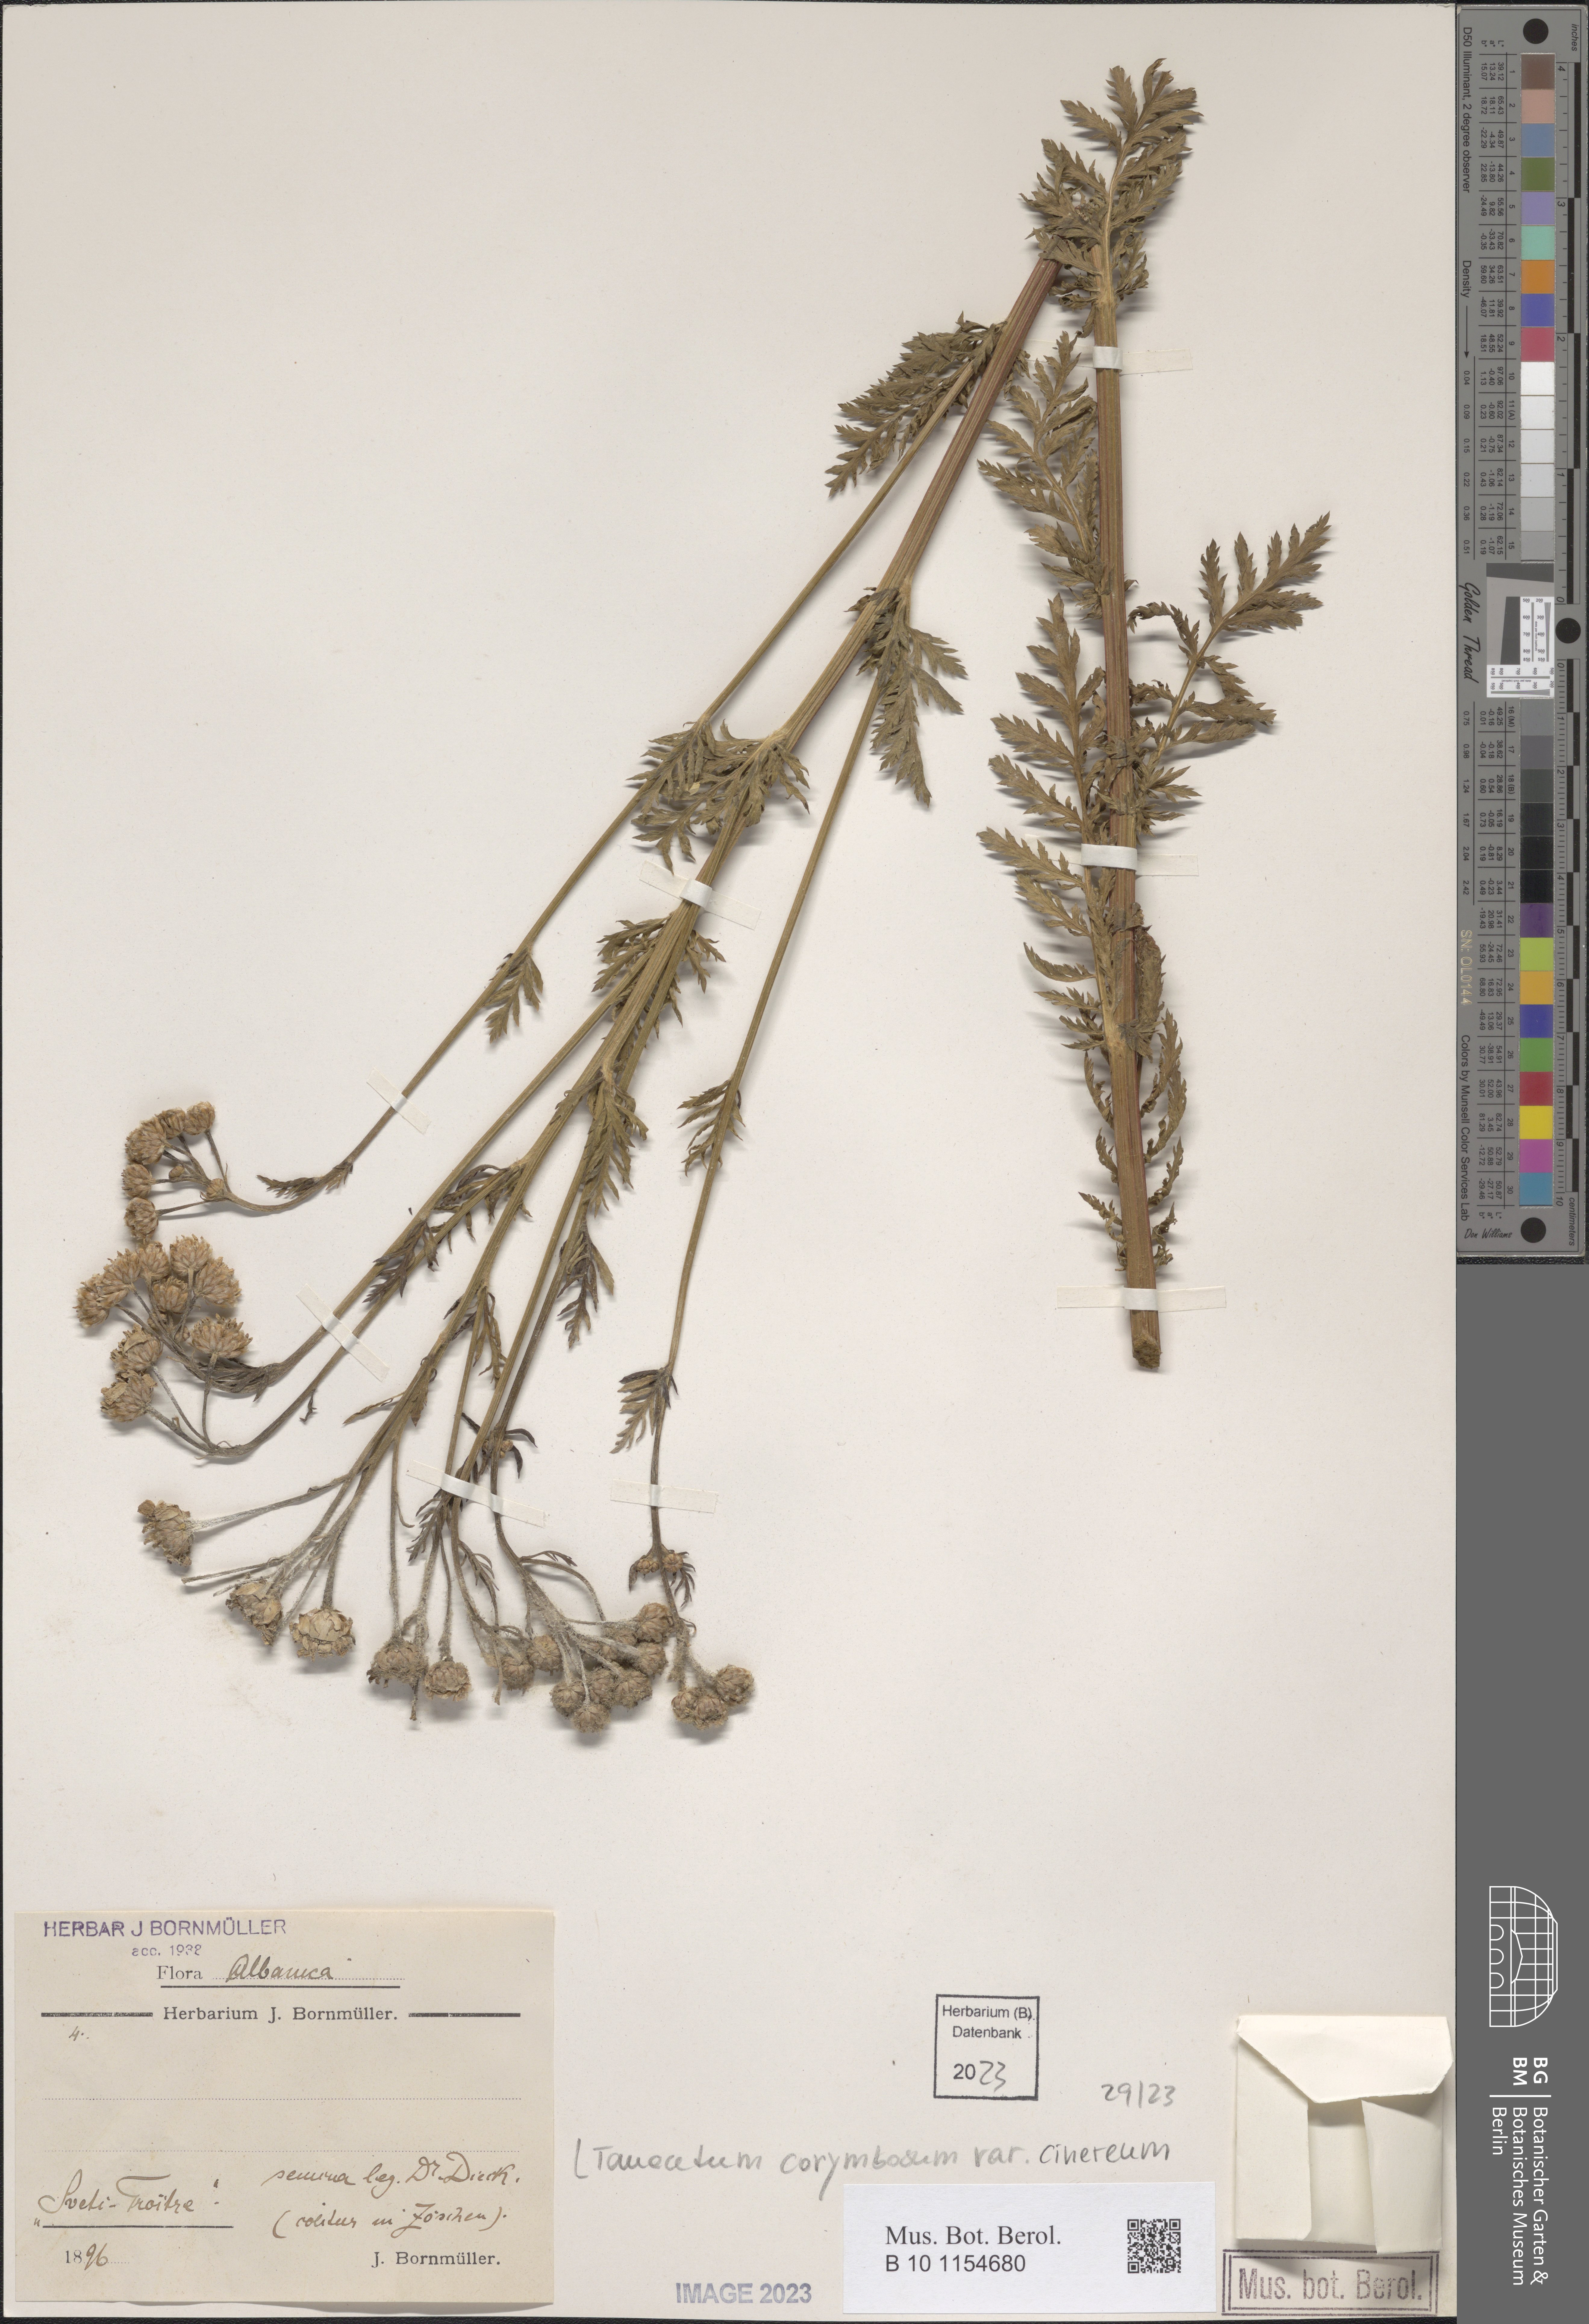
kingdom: Plantae
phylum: Tracheophyta
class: Magnoliopsida
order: Asterales
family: Asteraceae
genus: Tanacetum
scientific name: Tanacetum corymbosum
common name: Scentless feverfew
